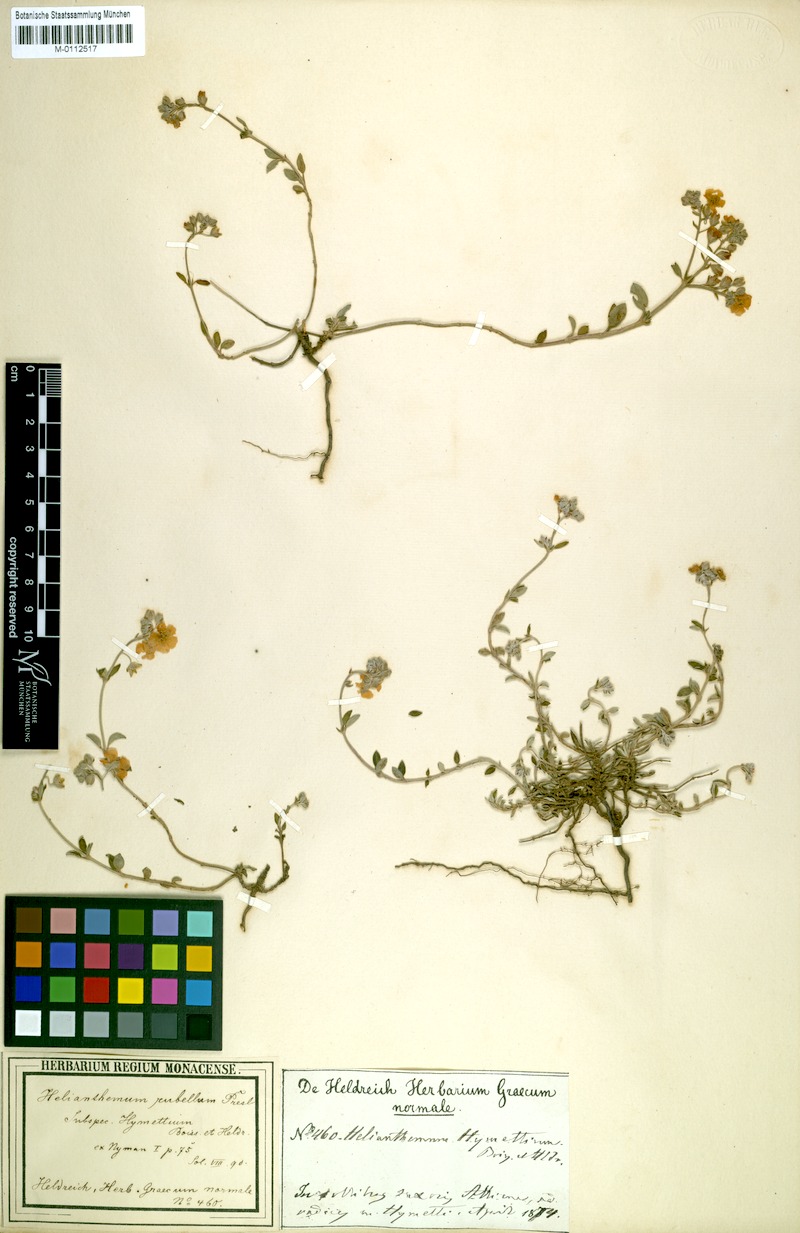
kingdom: Plantae
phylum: Tracheophyta
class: Magnoliopsida
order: Malvales
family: Cistaceae
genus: Helianthemum
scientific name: Helianthemum hymettium
